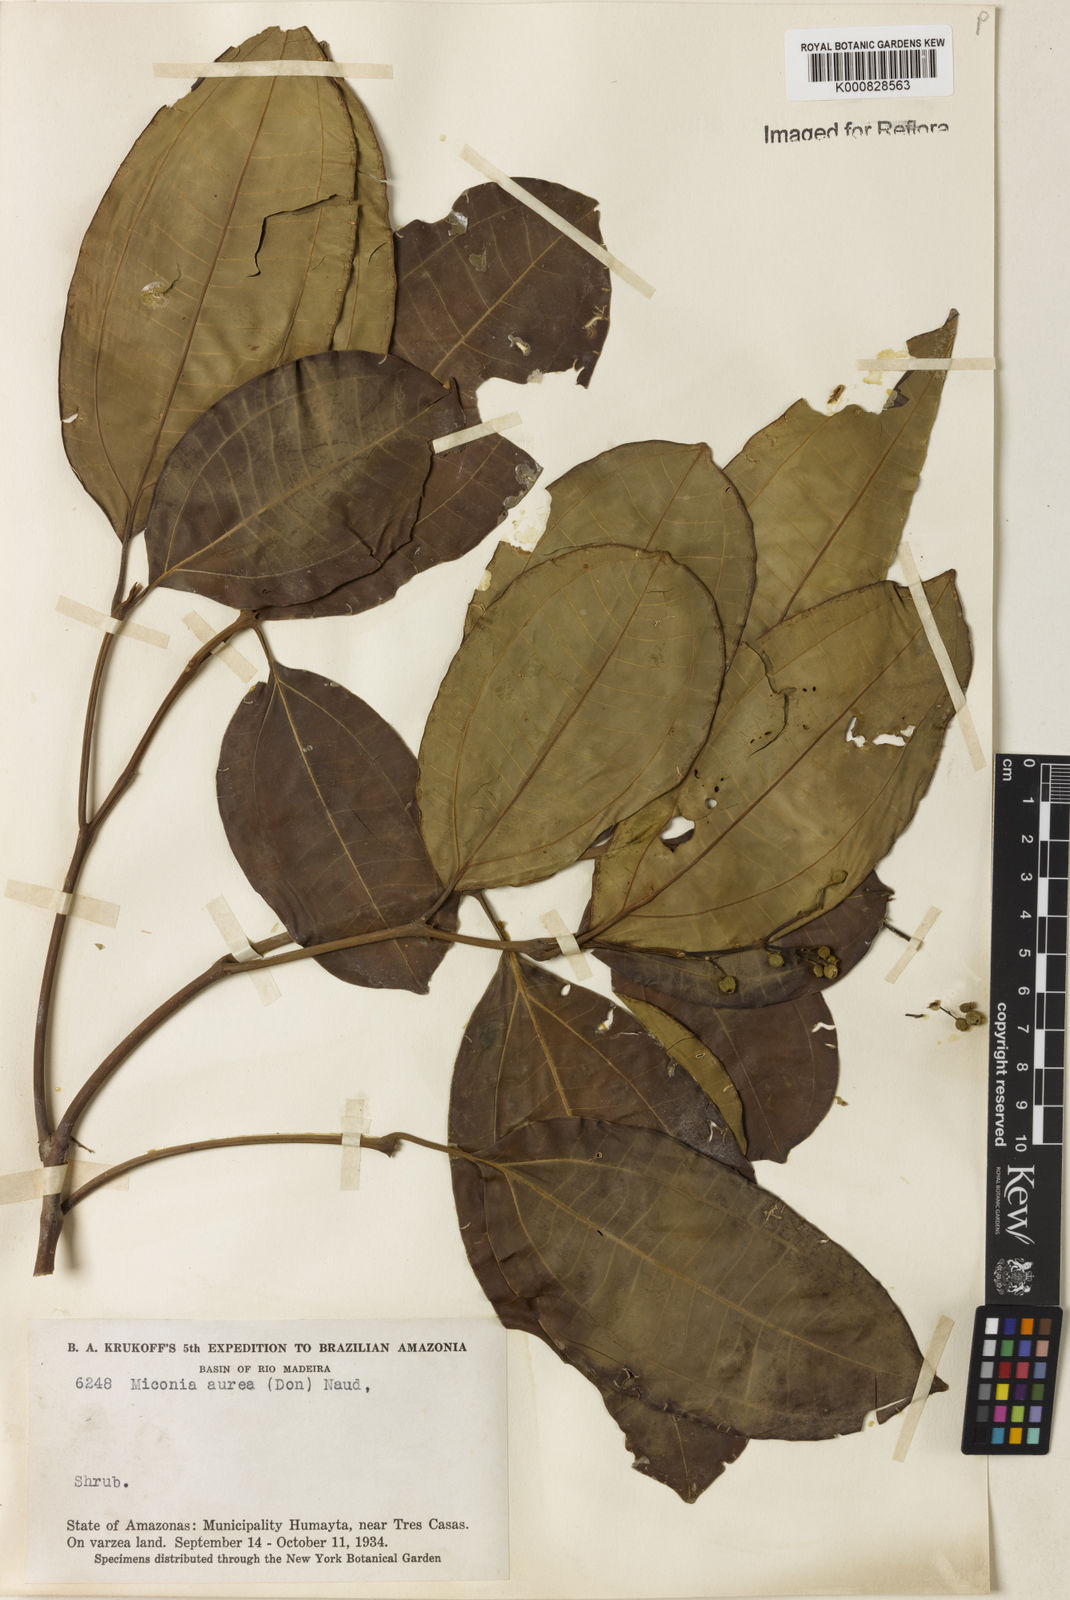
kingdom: Plantae
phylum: Tracheophyta
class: Magnoliopsida
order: Myrtales
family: Melastomataceae
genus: Miconia
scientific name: Miconia aurea
